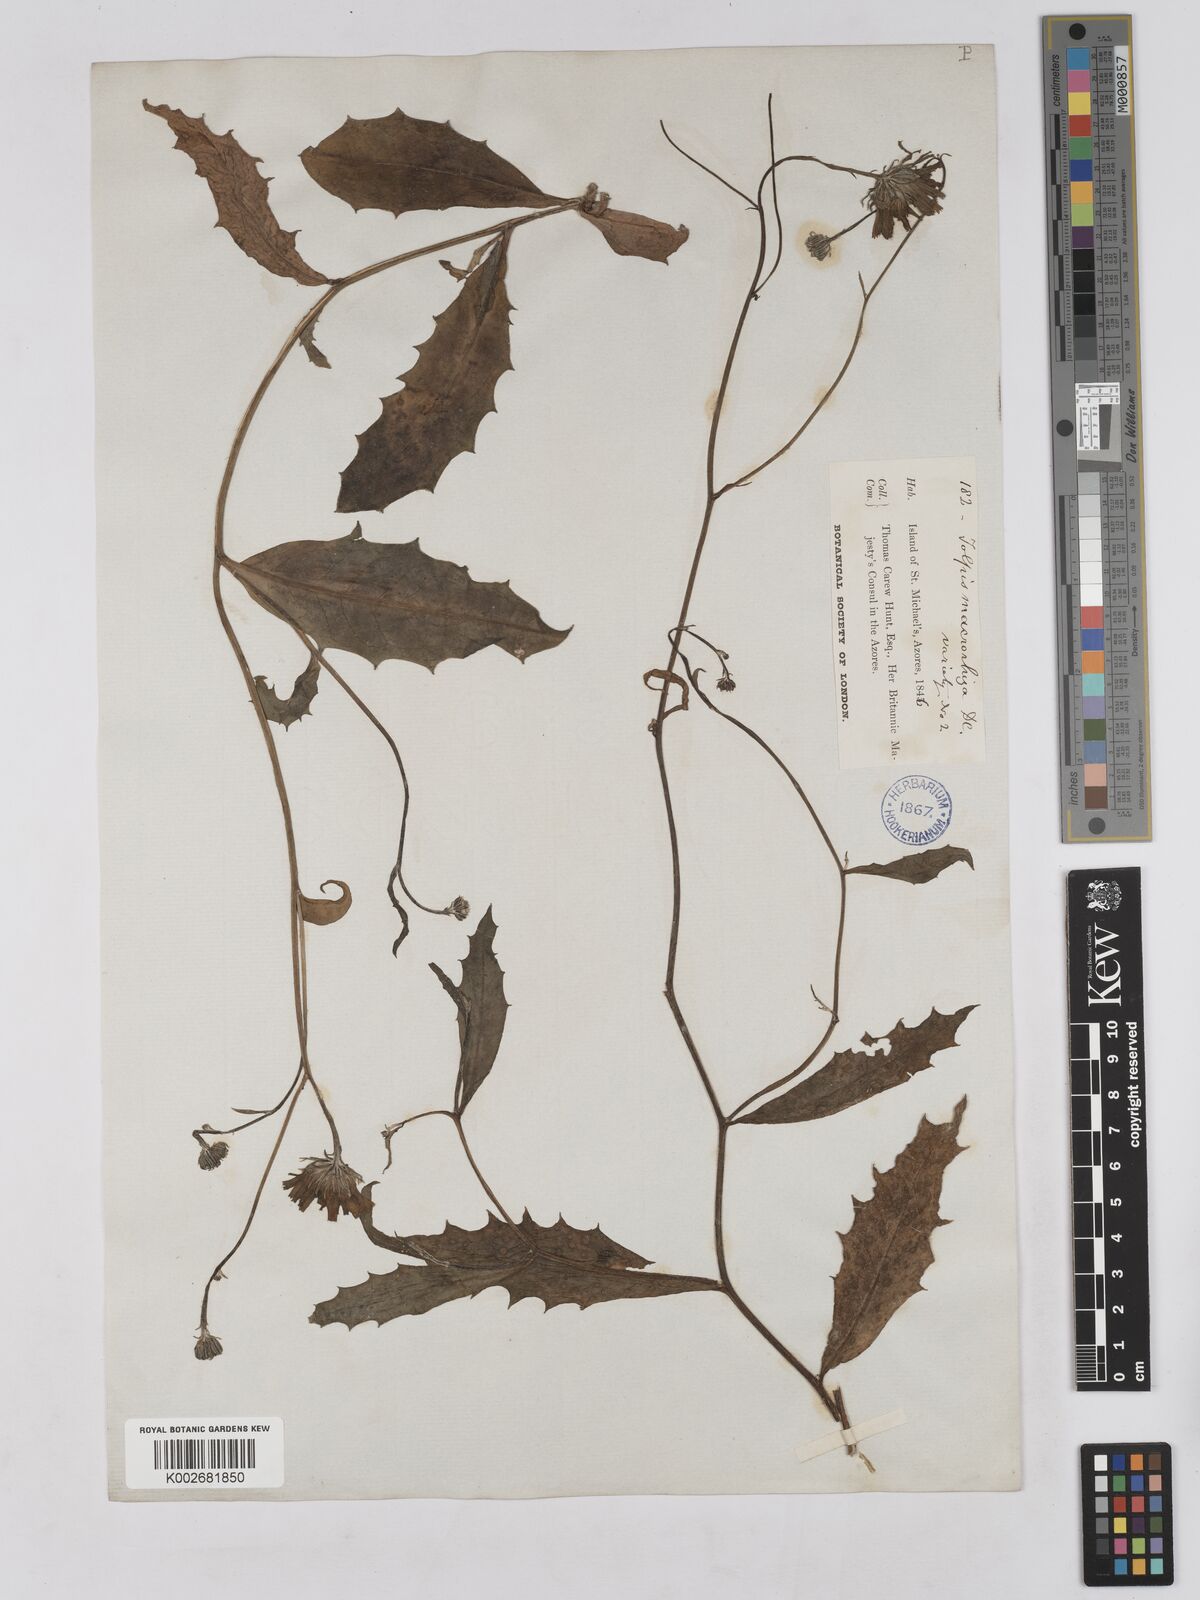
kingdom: Plantae
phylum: Tracheophyta
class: Magnoliopsida
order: Asterales
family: Asteraceae
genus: Tolpis
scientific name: Tolpis nobilis
